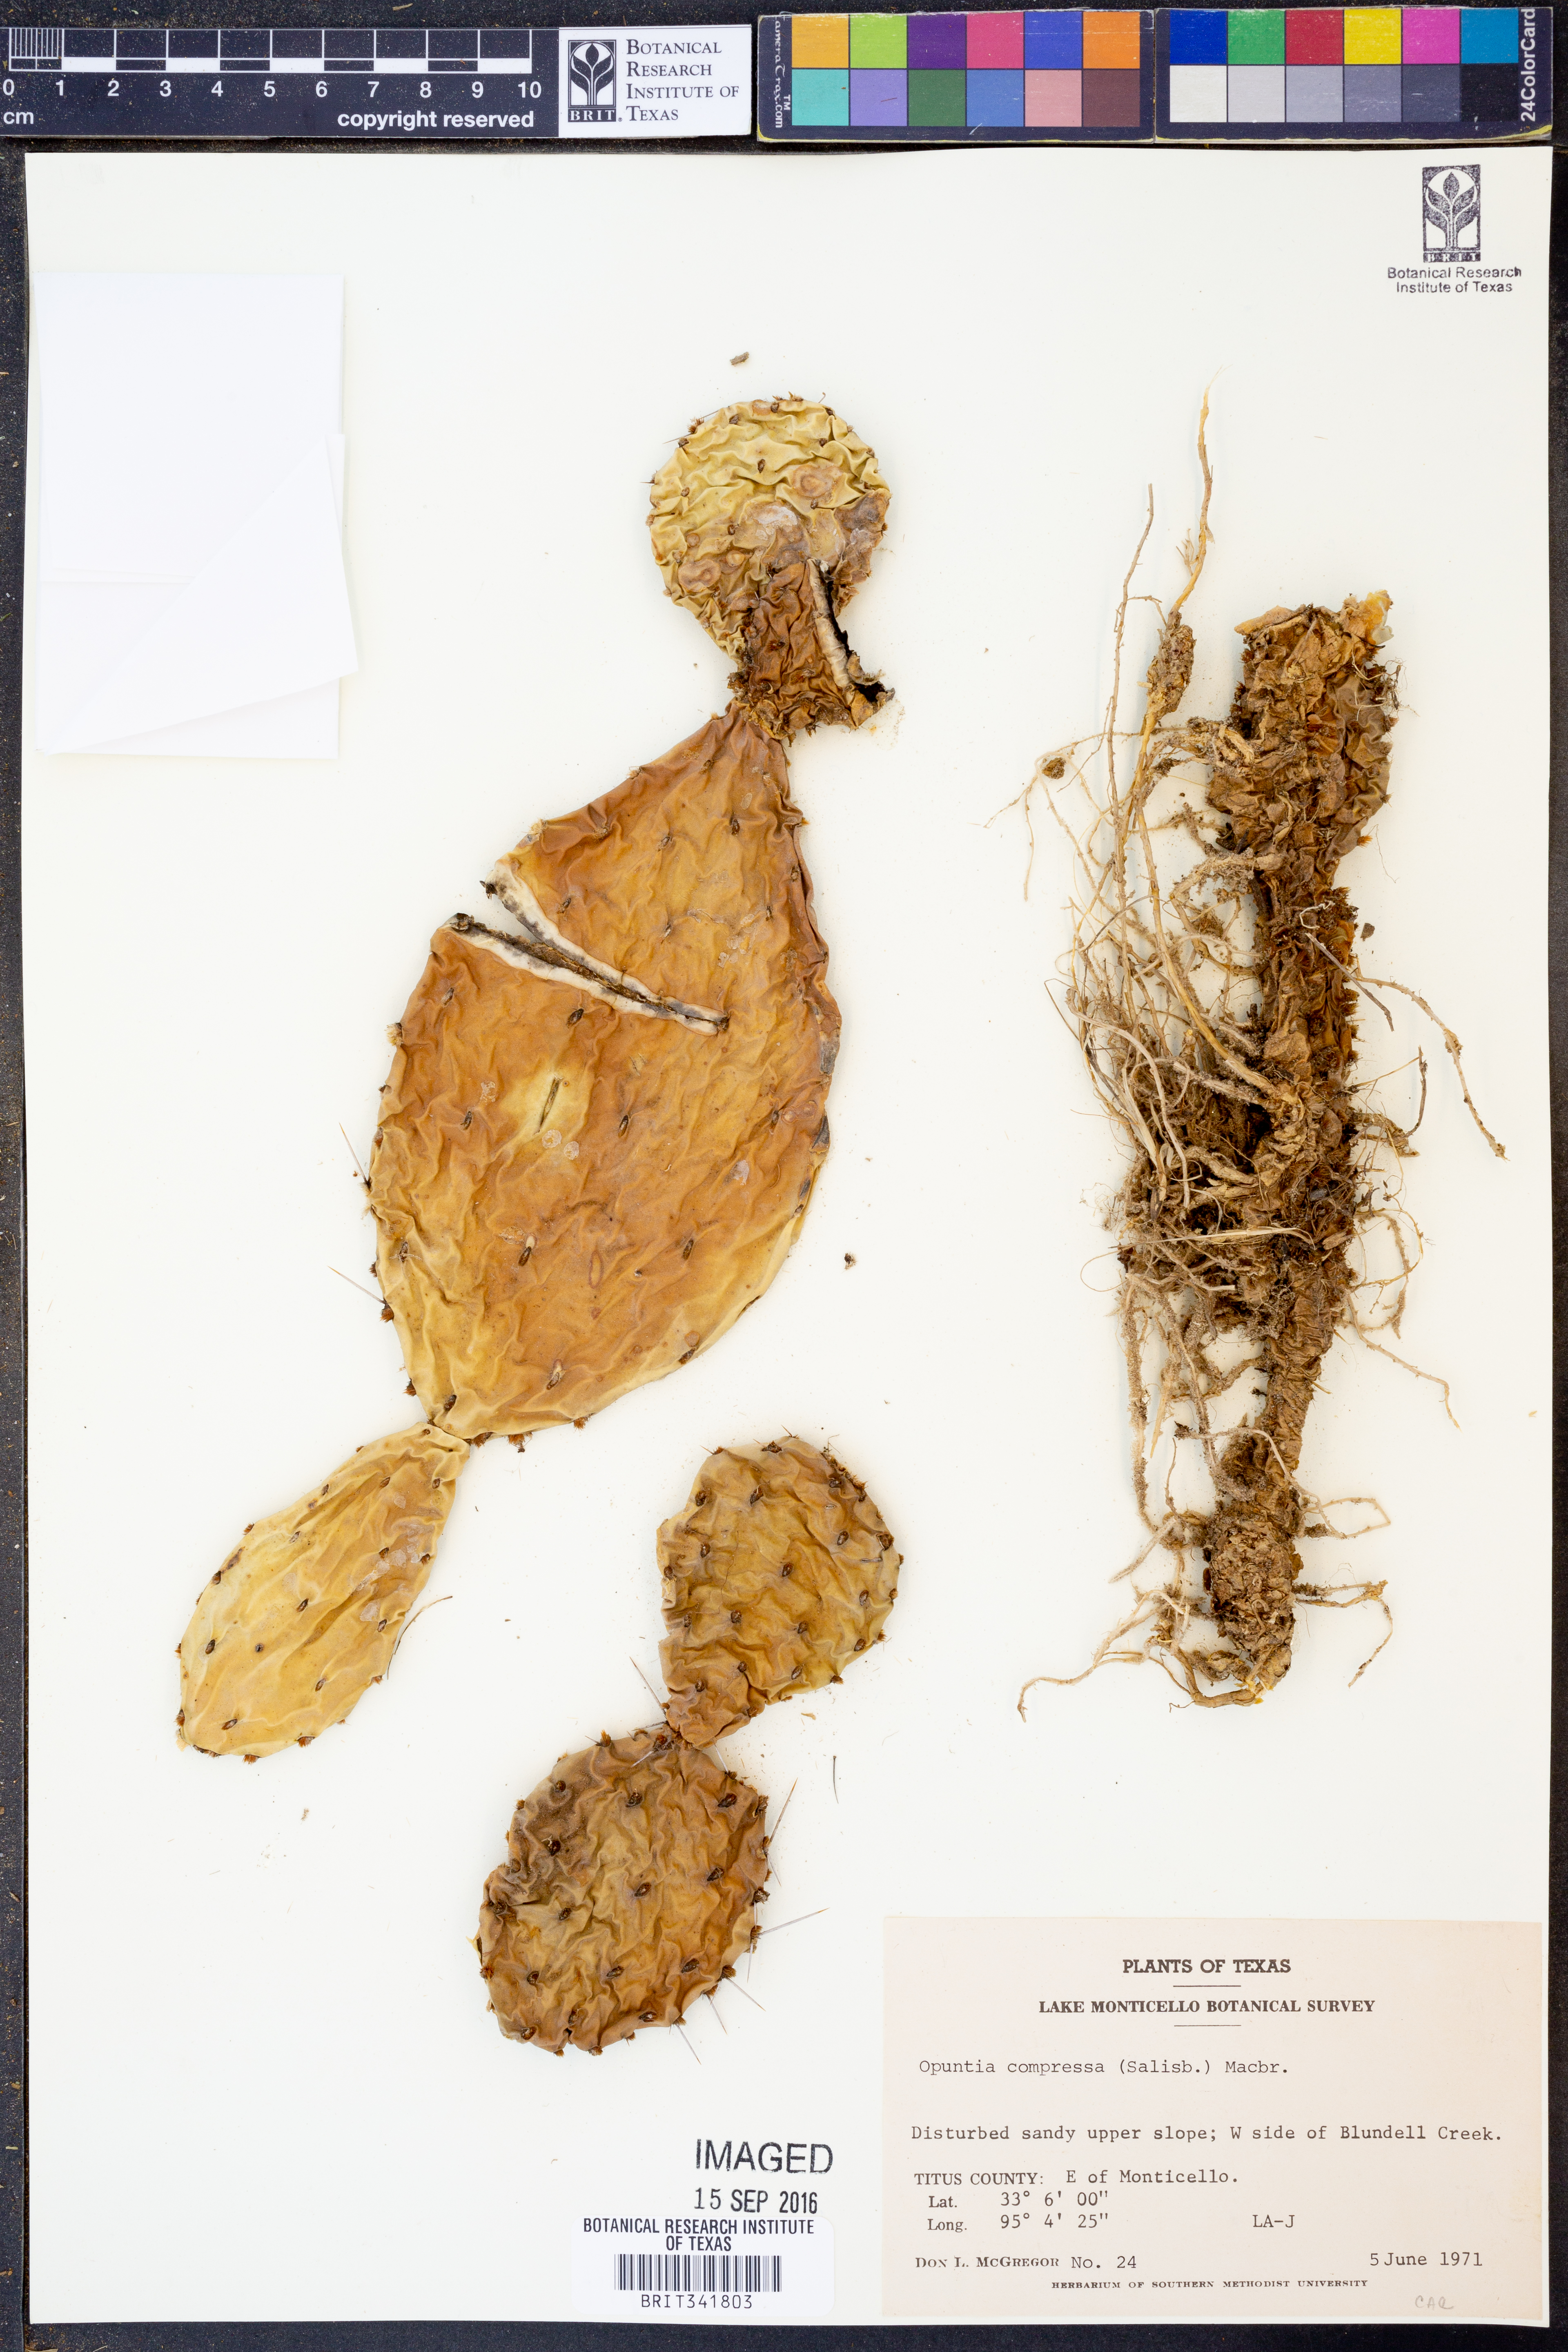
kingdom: Plantae
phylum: Tracheophyta
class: Magnoliopsida
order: Caryophyllales
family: Cactaceae
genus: Opuntia
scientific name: Opuntia humifusa
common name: Eastern prickly-pear
